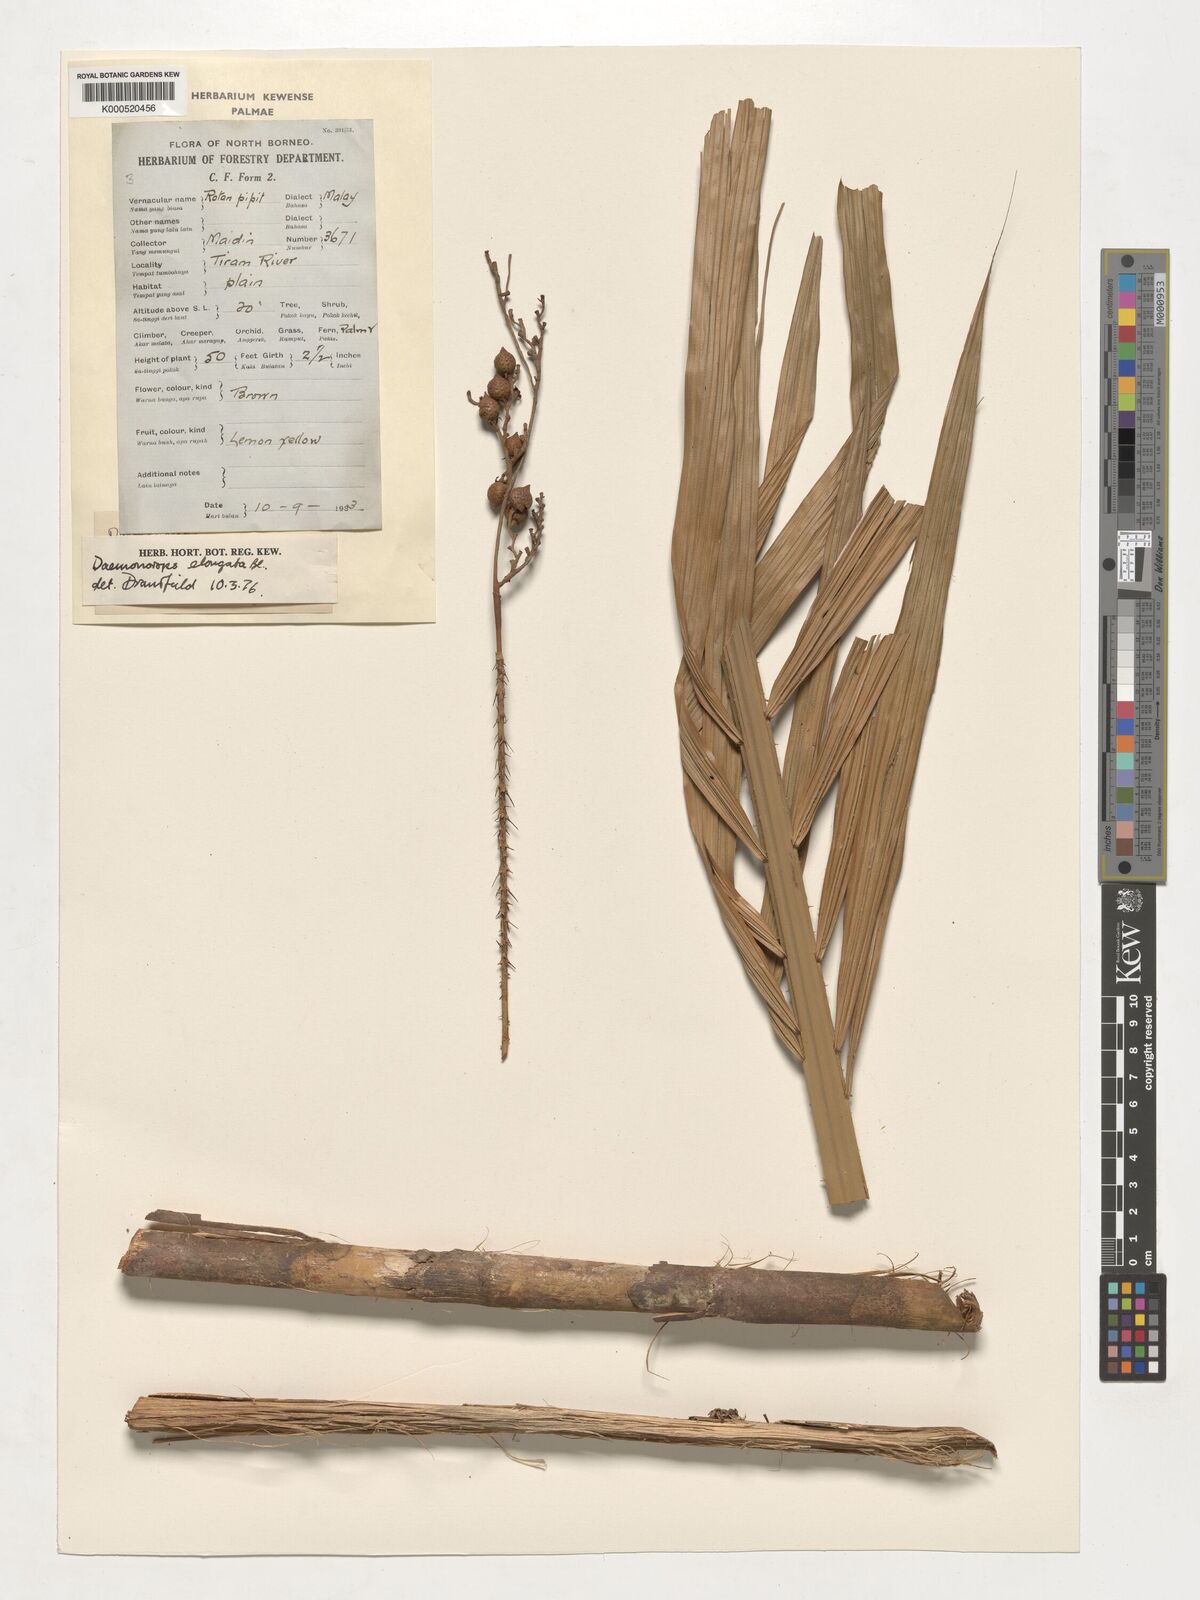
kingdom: Plantae
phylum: Tracheophyta
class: Liliopsida
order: Arecales
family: Arecaceae
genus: Calamus
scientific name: Calamus oblongus
